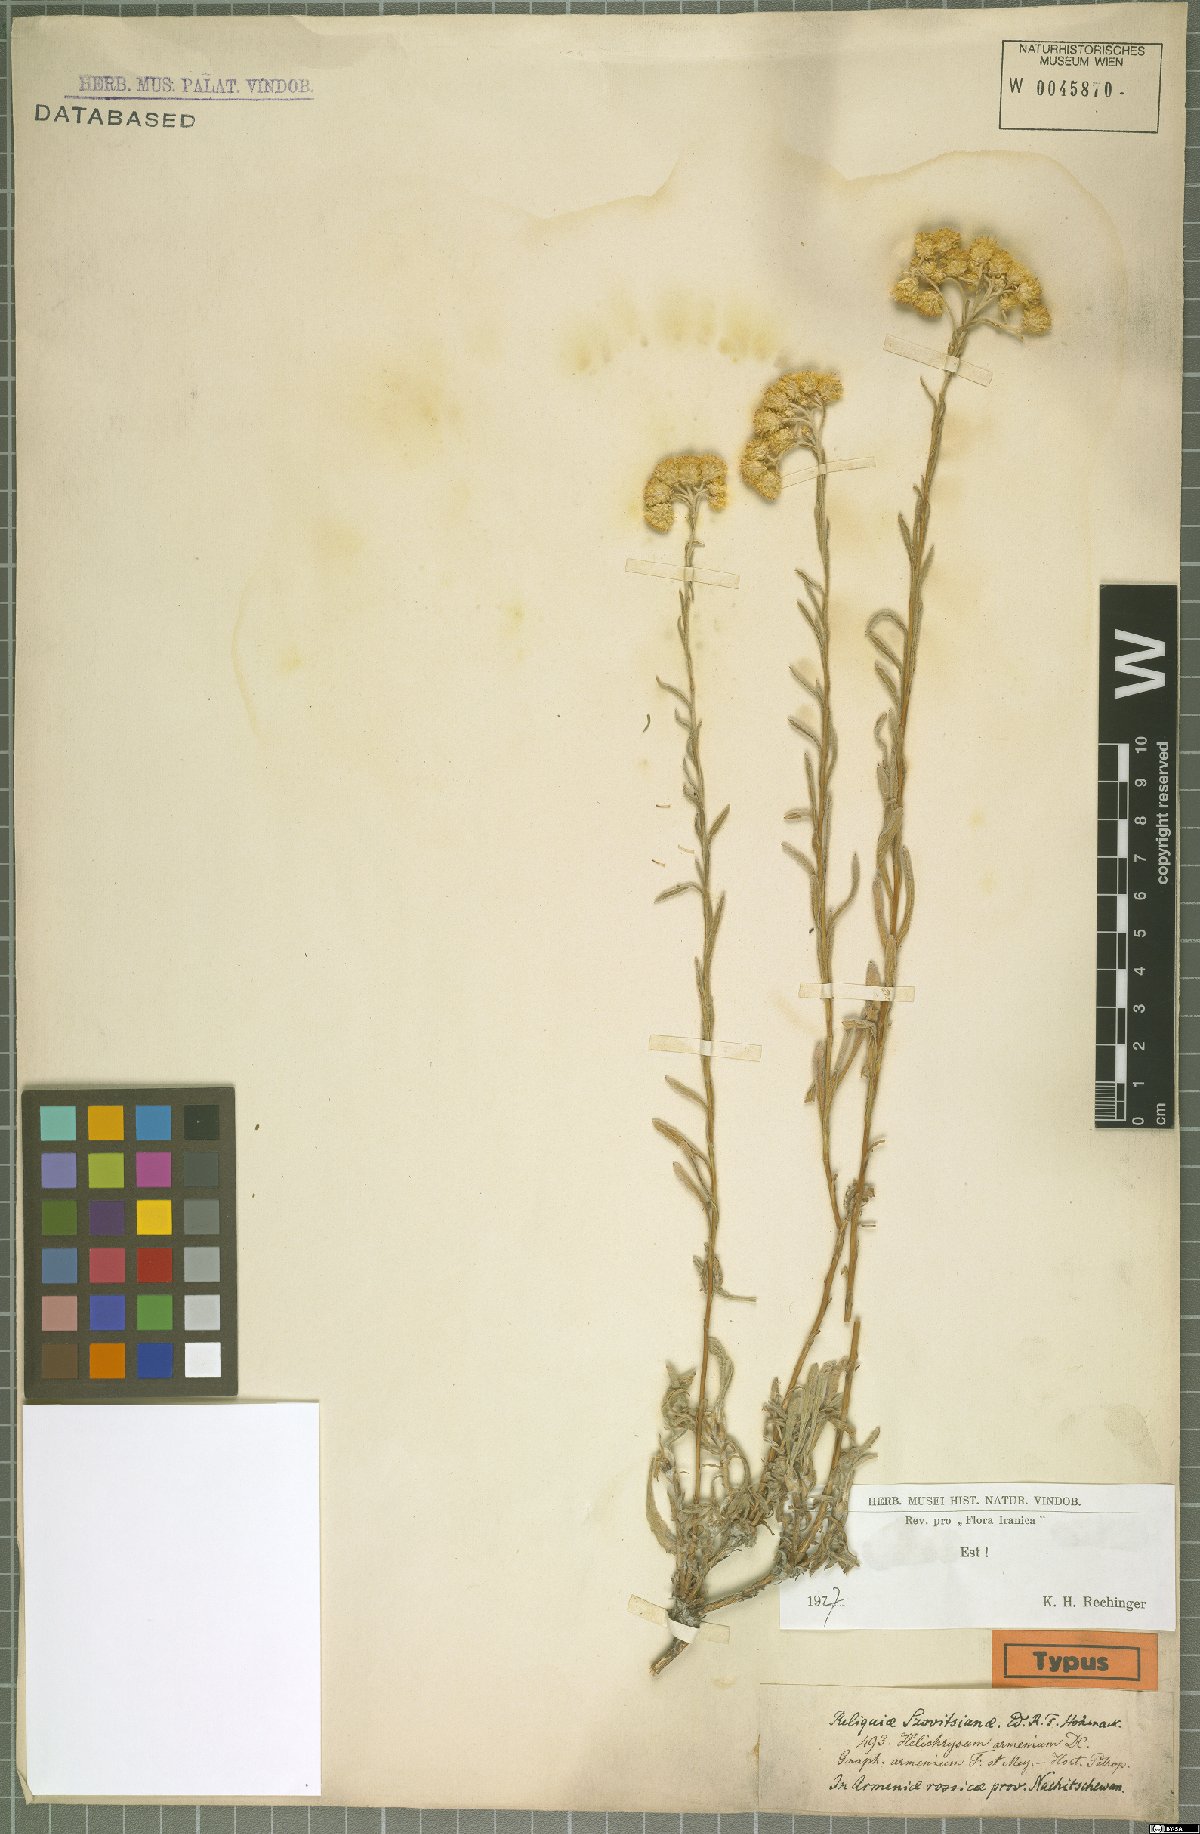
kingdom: Plantae
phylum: Tracheophyta
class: Magnoliopsida
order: Asterales
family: Asteraceae
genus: Helichrysum
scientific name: Helichrysum armenium
